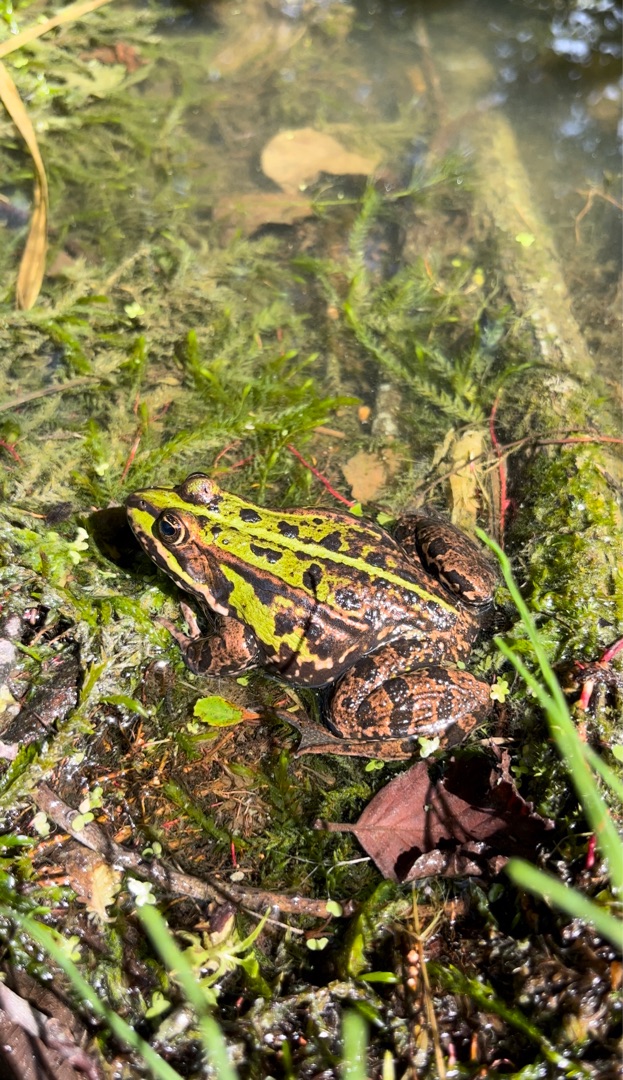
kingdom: Animalia
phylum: Chordata
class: Amphibia
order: Anura
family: Ranidae
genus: Pelophylax
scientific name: Pelophylax lessonae
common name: Grøn frø
